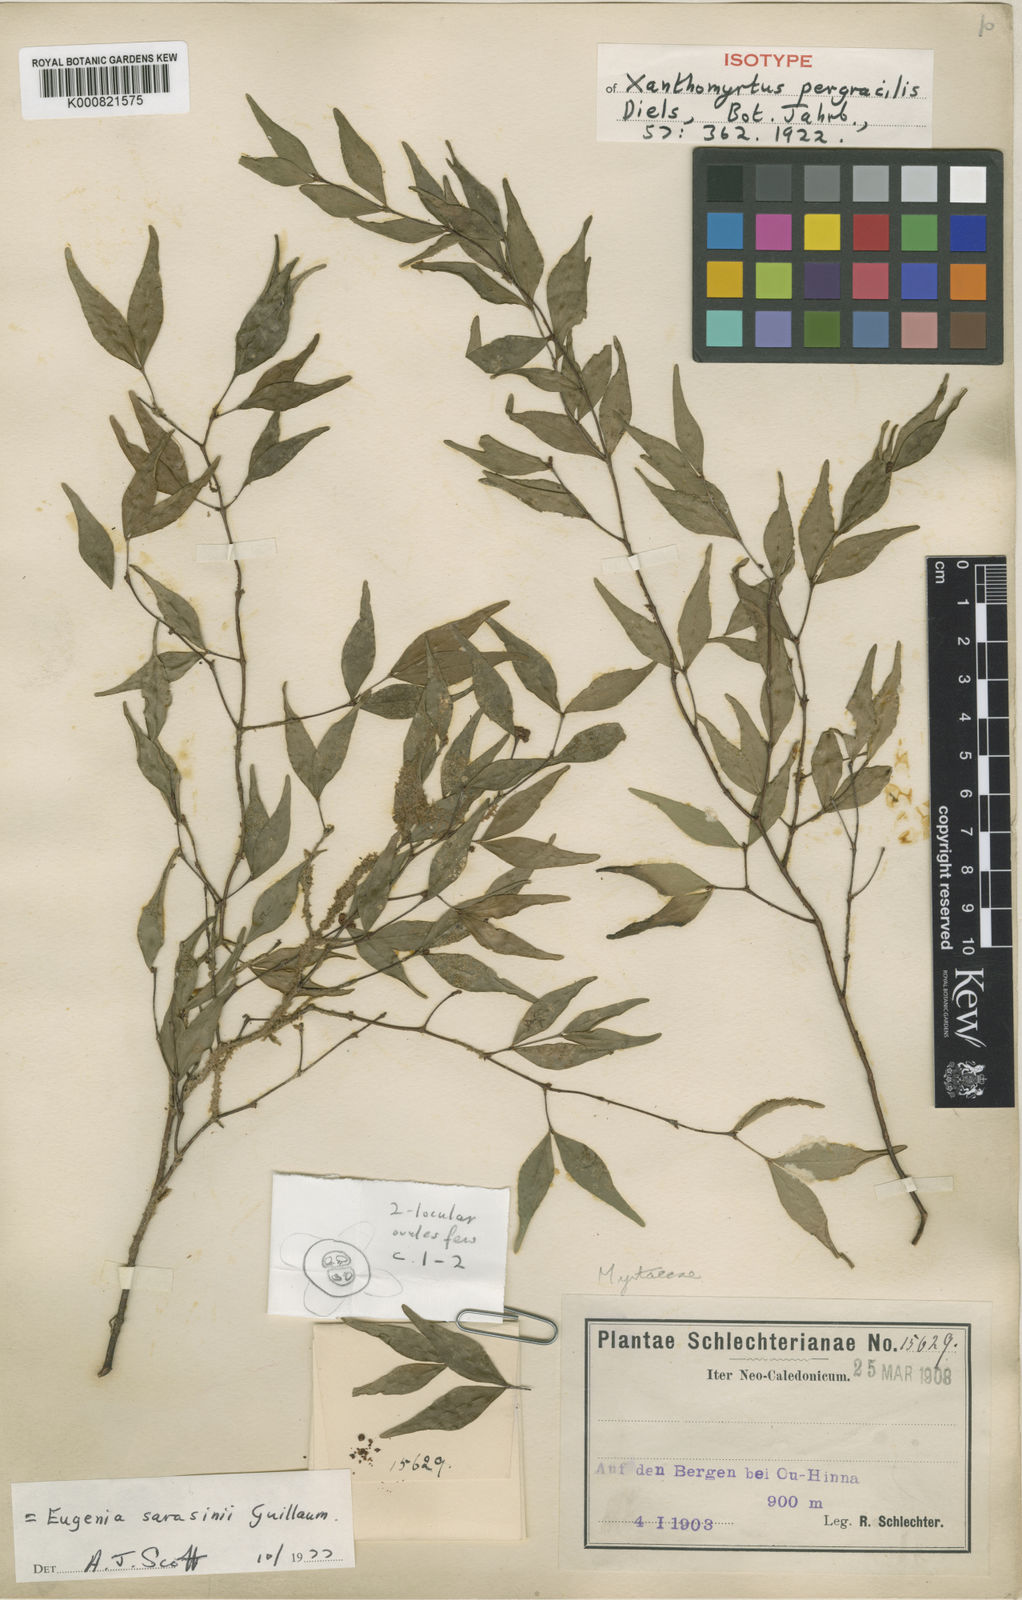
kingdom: Plantae
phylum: Tracheophyta
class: Magnoliopsida
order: Myrtales
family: Myrtaceae
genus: Eugenia
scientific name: Eugenia sarasinii
